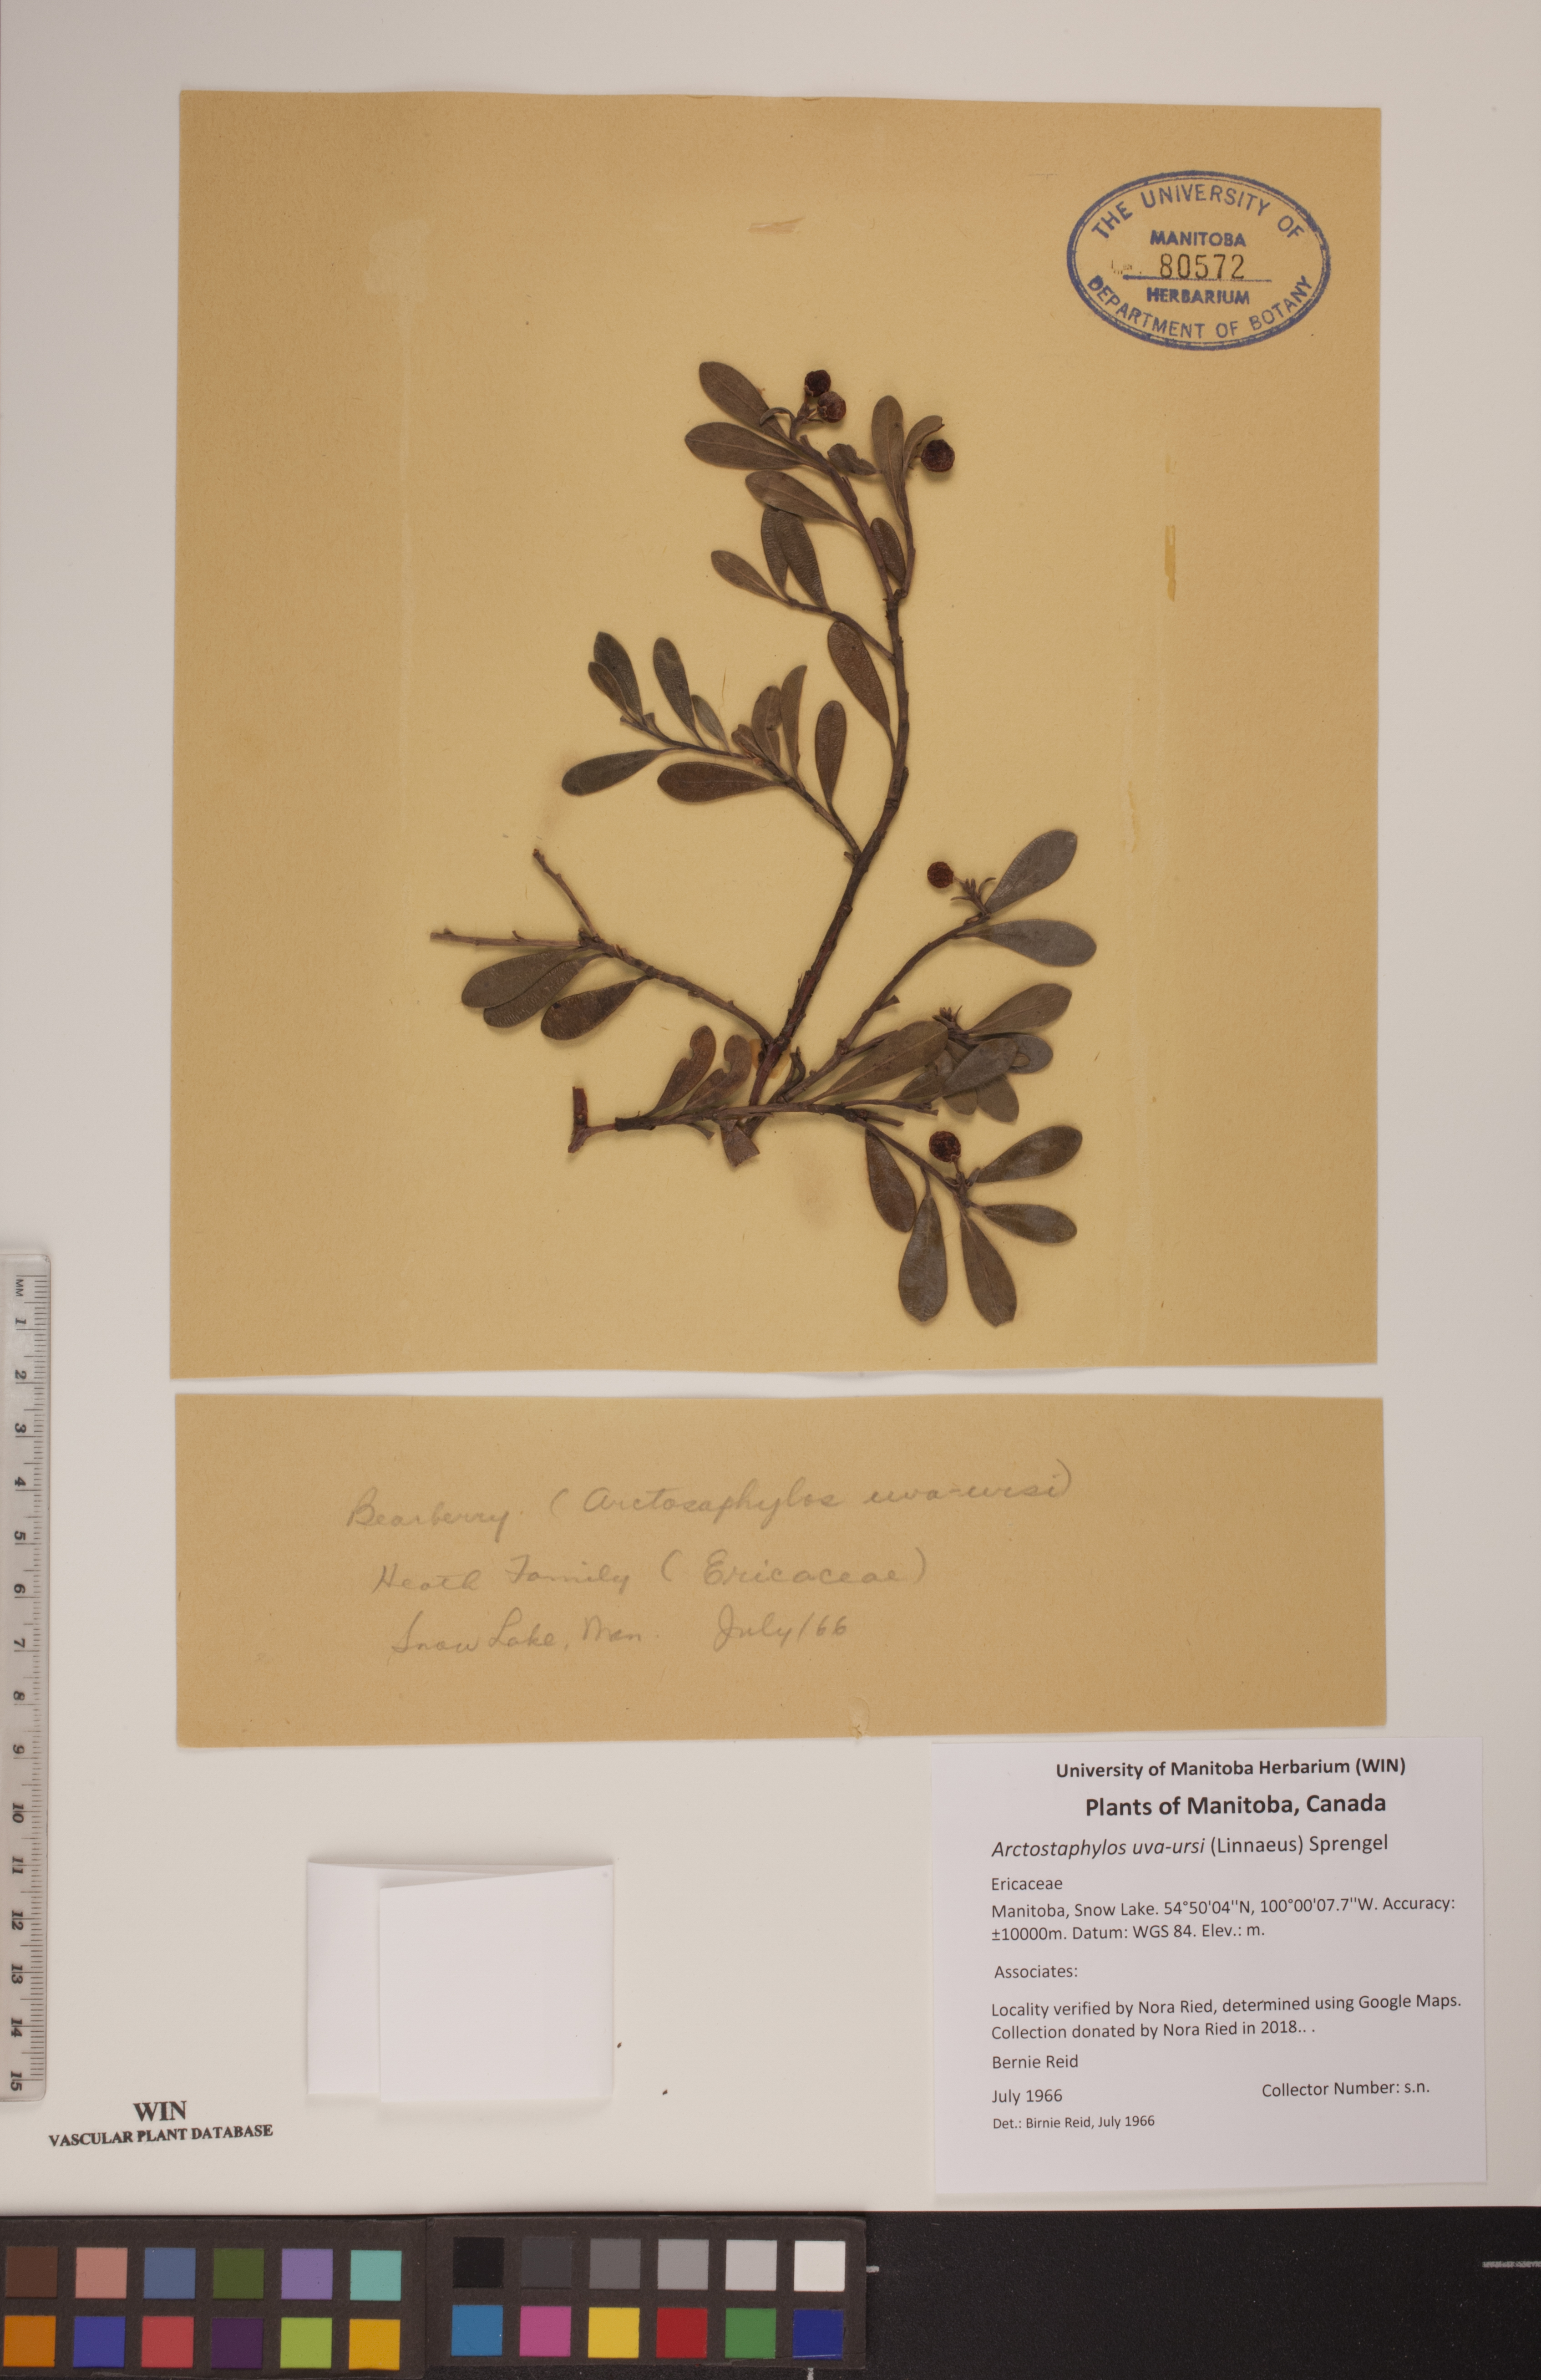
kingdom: Plantae
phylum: Tracheophyta
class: Magnoliopsida
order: Ericales
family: Ericaceae
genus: Arctostaphylos
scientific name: Arctostaphylos uva-ursi
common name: Bearberry
